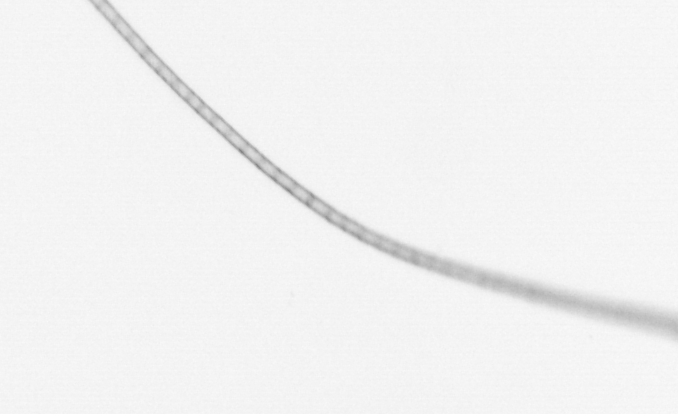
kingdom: Chromista
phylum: Ochrophyta
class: Bacillariophyceae
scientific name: Bacillariophyceae
